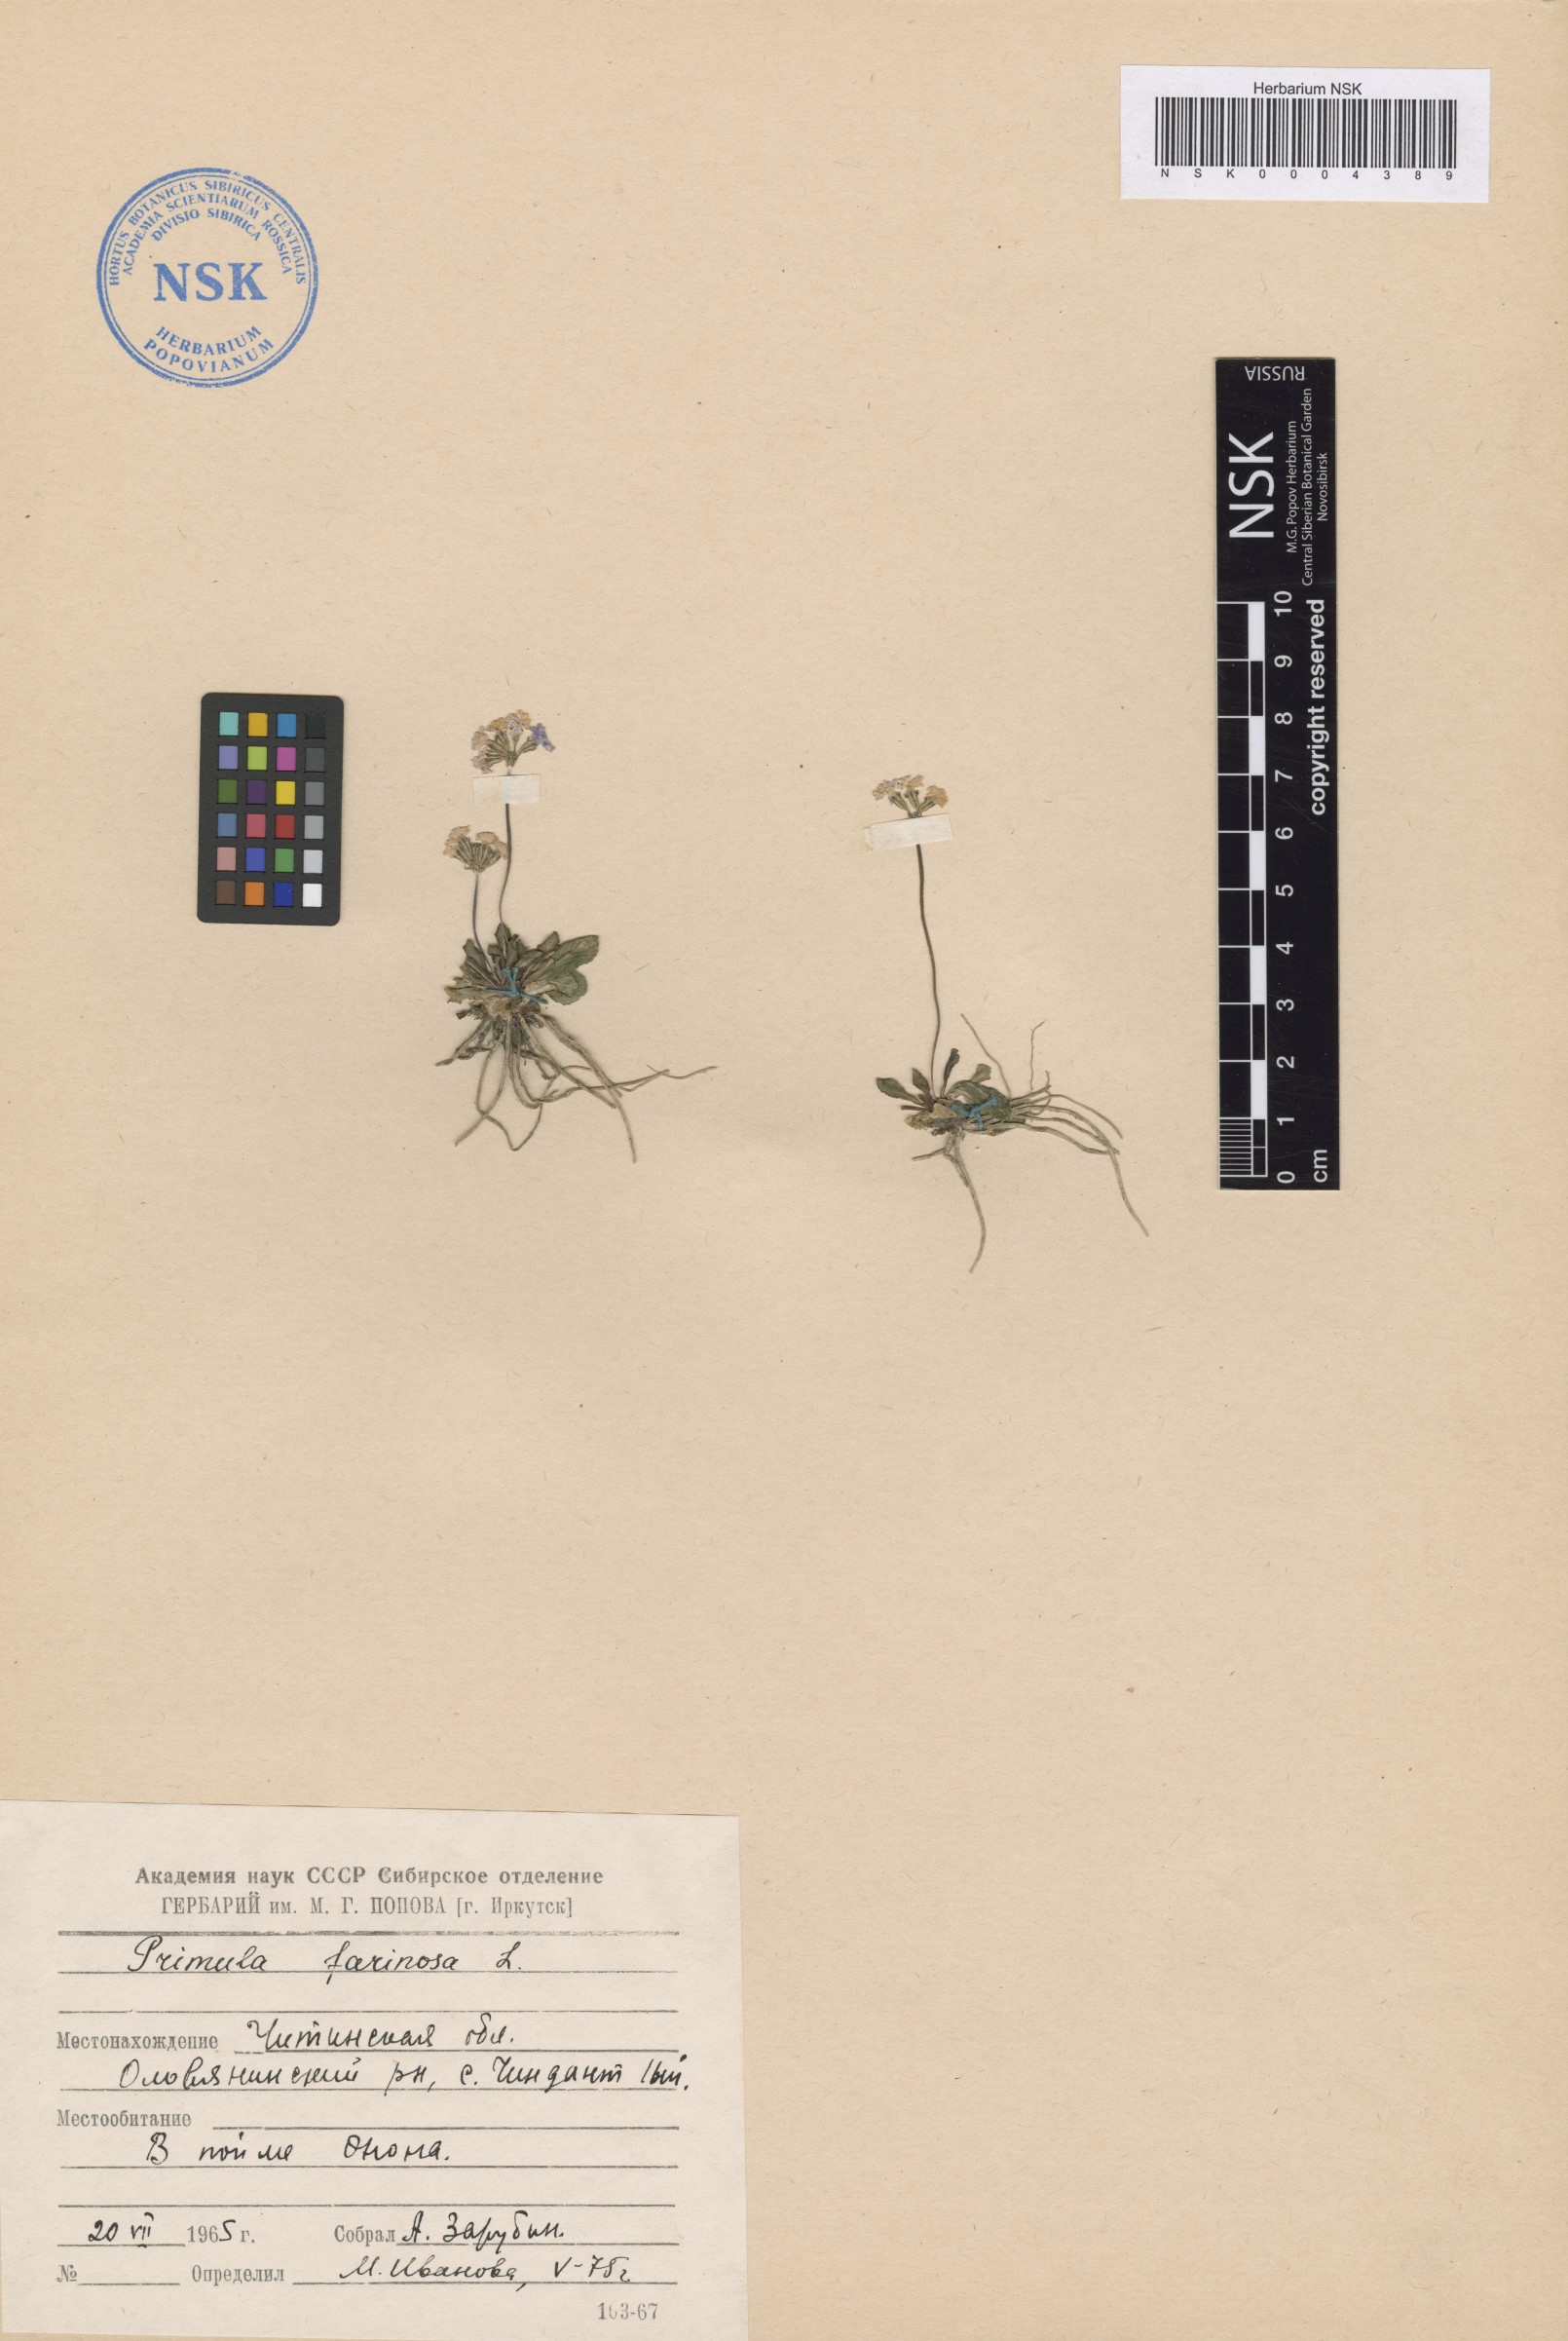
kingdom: Plantae
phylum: Tracheophyta
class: Magnoliopsida
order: Ericales
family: Primulaceae
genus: Primula
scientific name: Primula farinosa
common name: Bird's-eye primrose
